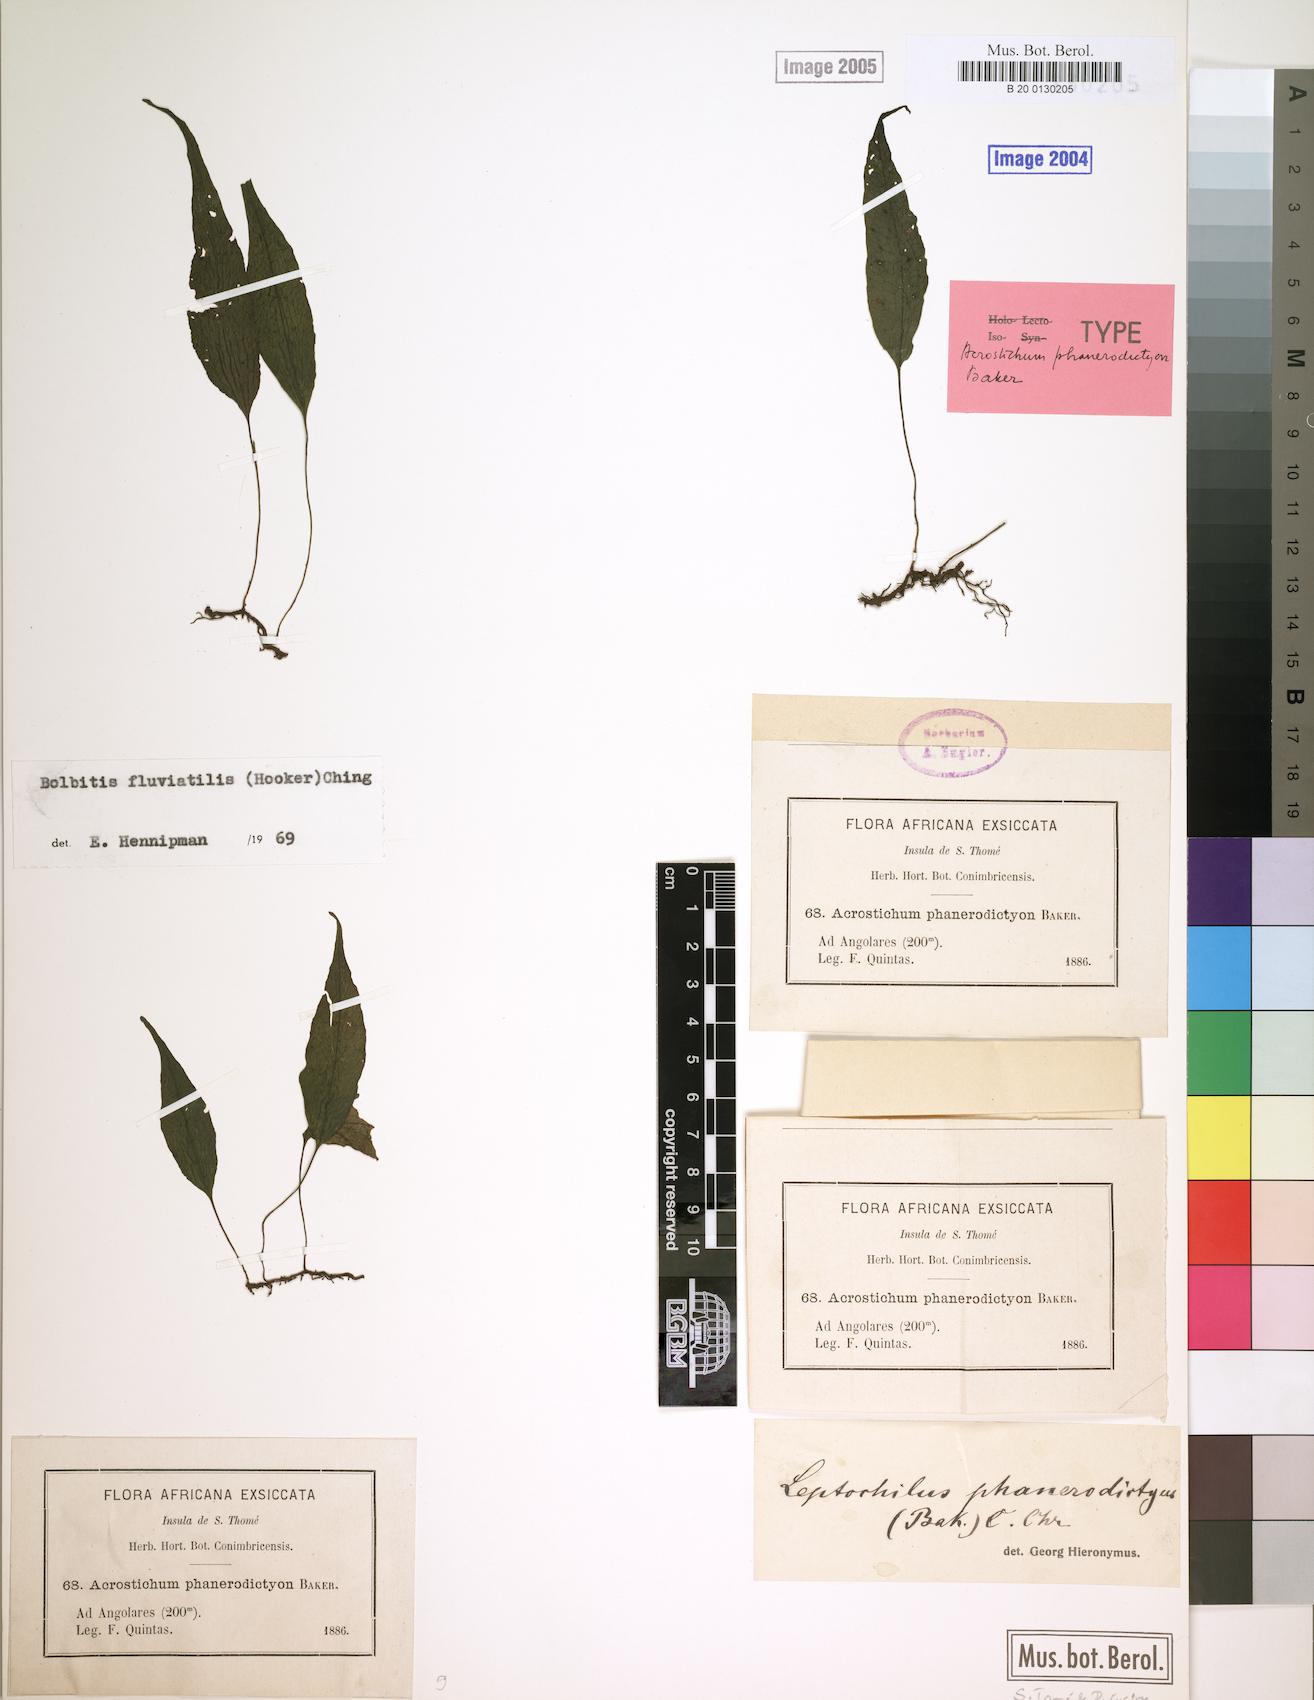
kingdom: Plantae
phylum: Tracheophyta
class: Polypodiopsida
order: Polypodiales
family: Dryopteridaceae
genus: Bolbitis
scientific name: Bolbitis fluviatilis
